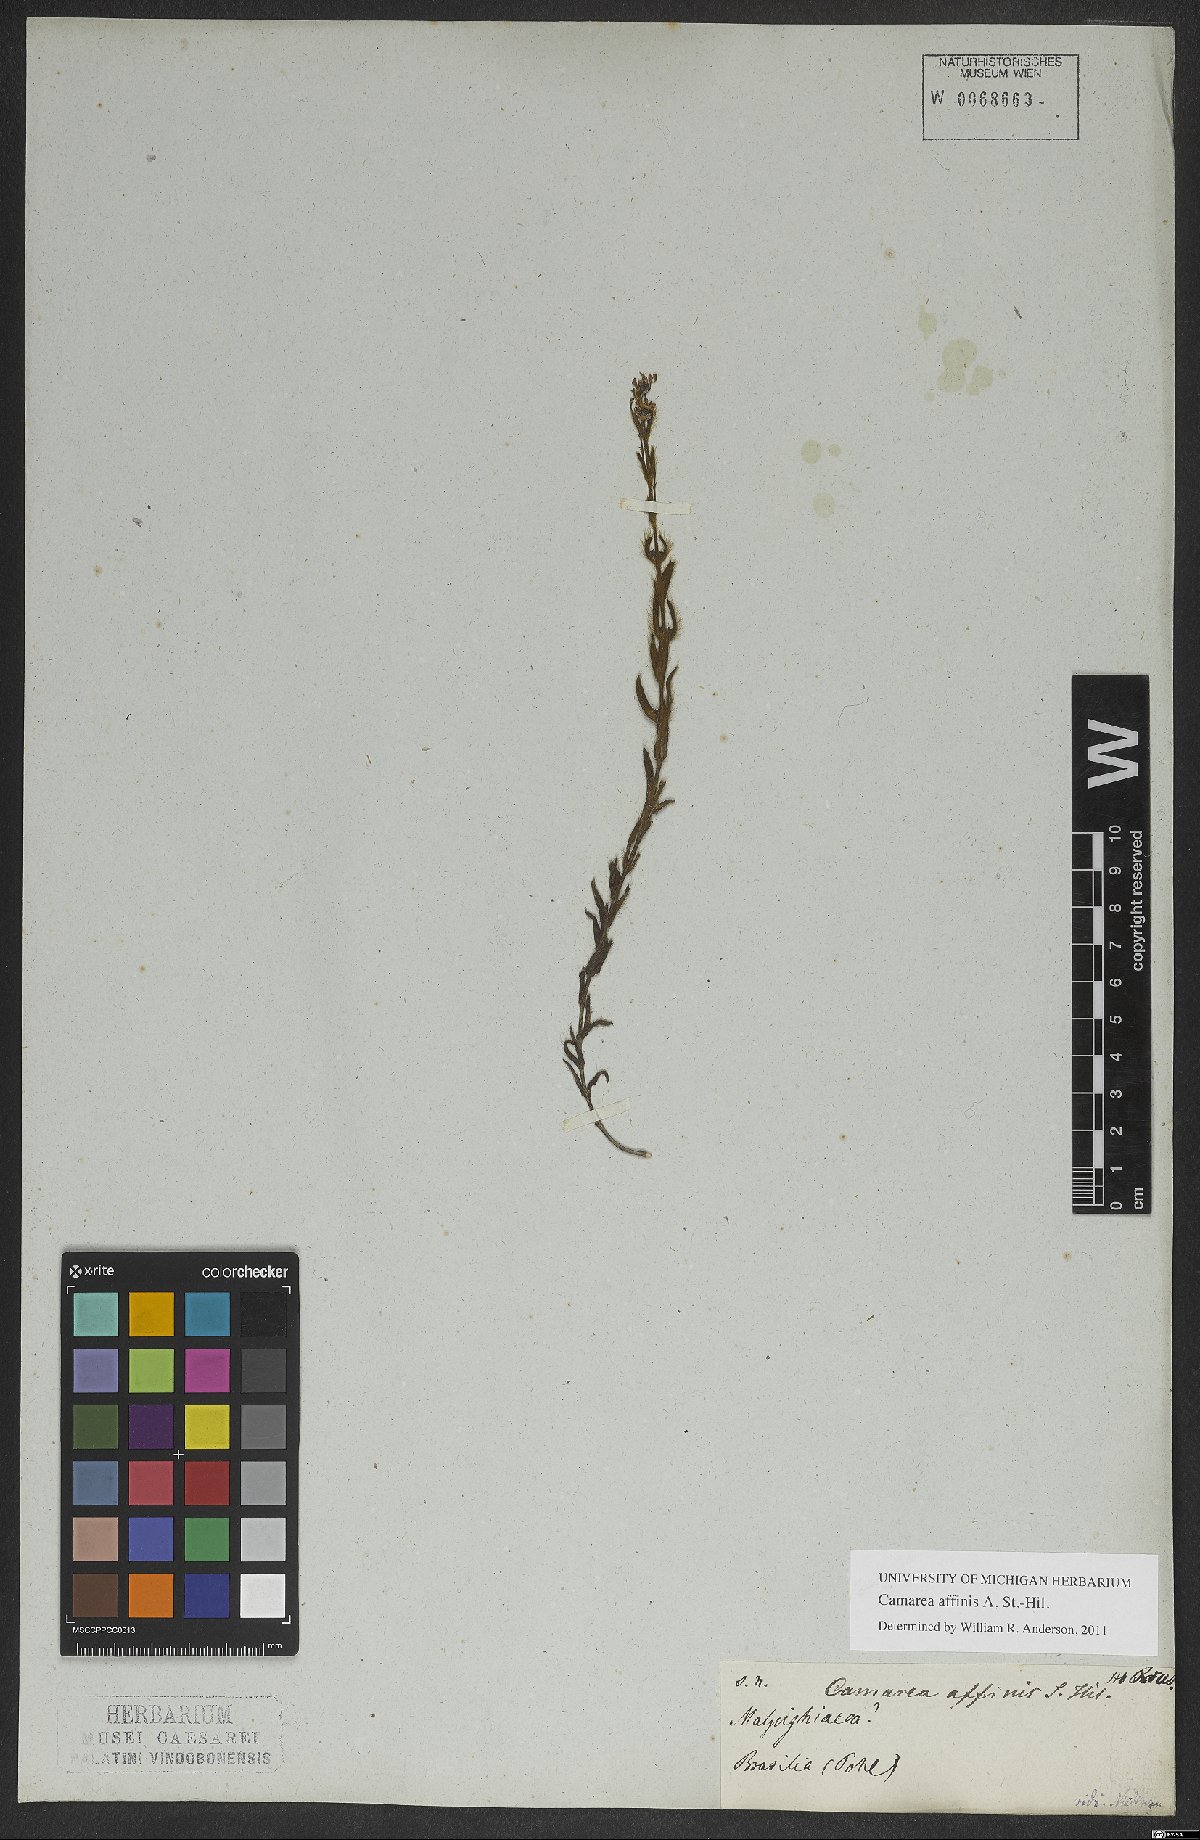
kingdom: Plantae
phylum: Tracheophyta
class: Magnoliopsida
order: Malpighiales
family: Malpighiaceae
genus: Camarea
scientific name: Camarea affinis
